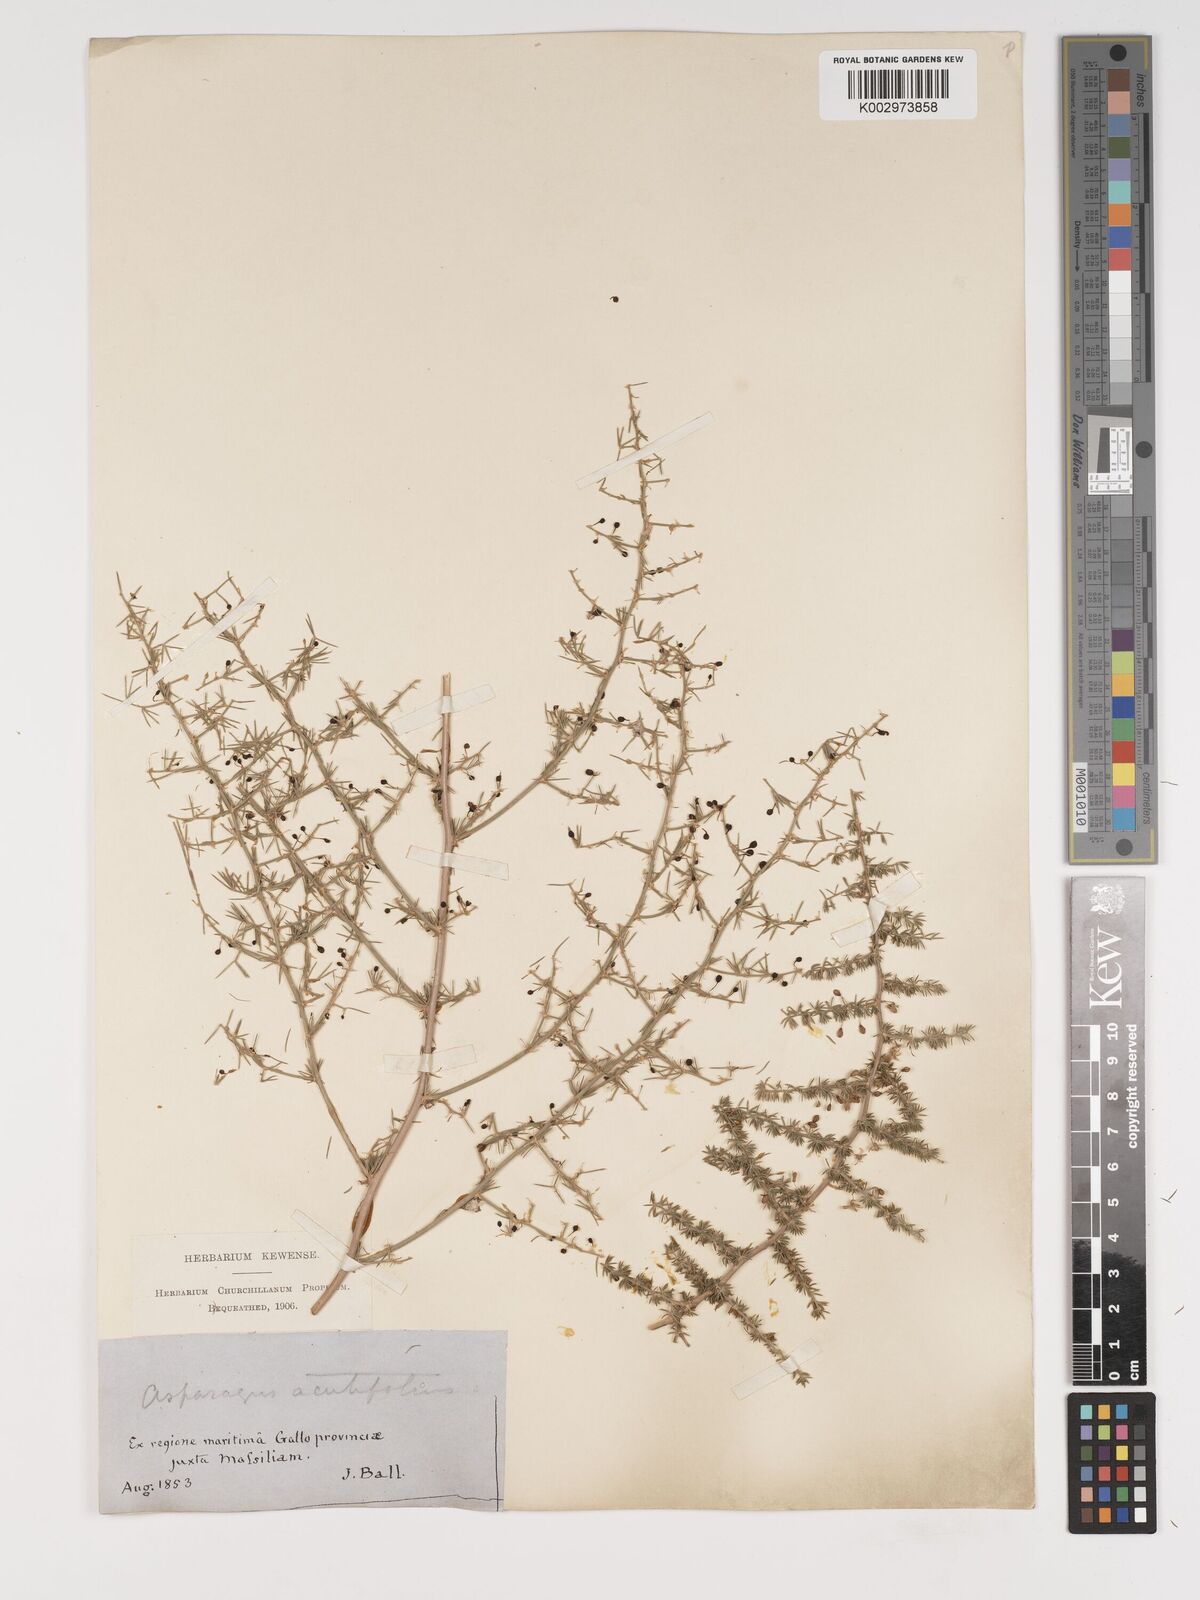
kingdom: Plantae
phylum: Tracheophyta
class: Liliopsida
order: Asparagales
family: Asparagaceae
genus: Asparagus
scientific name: Asparagus acutifolius
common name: Wild asparagus
